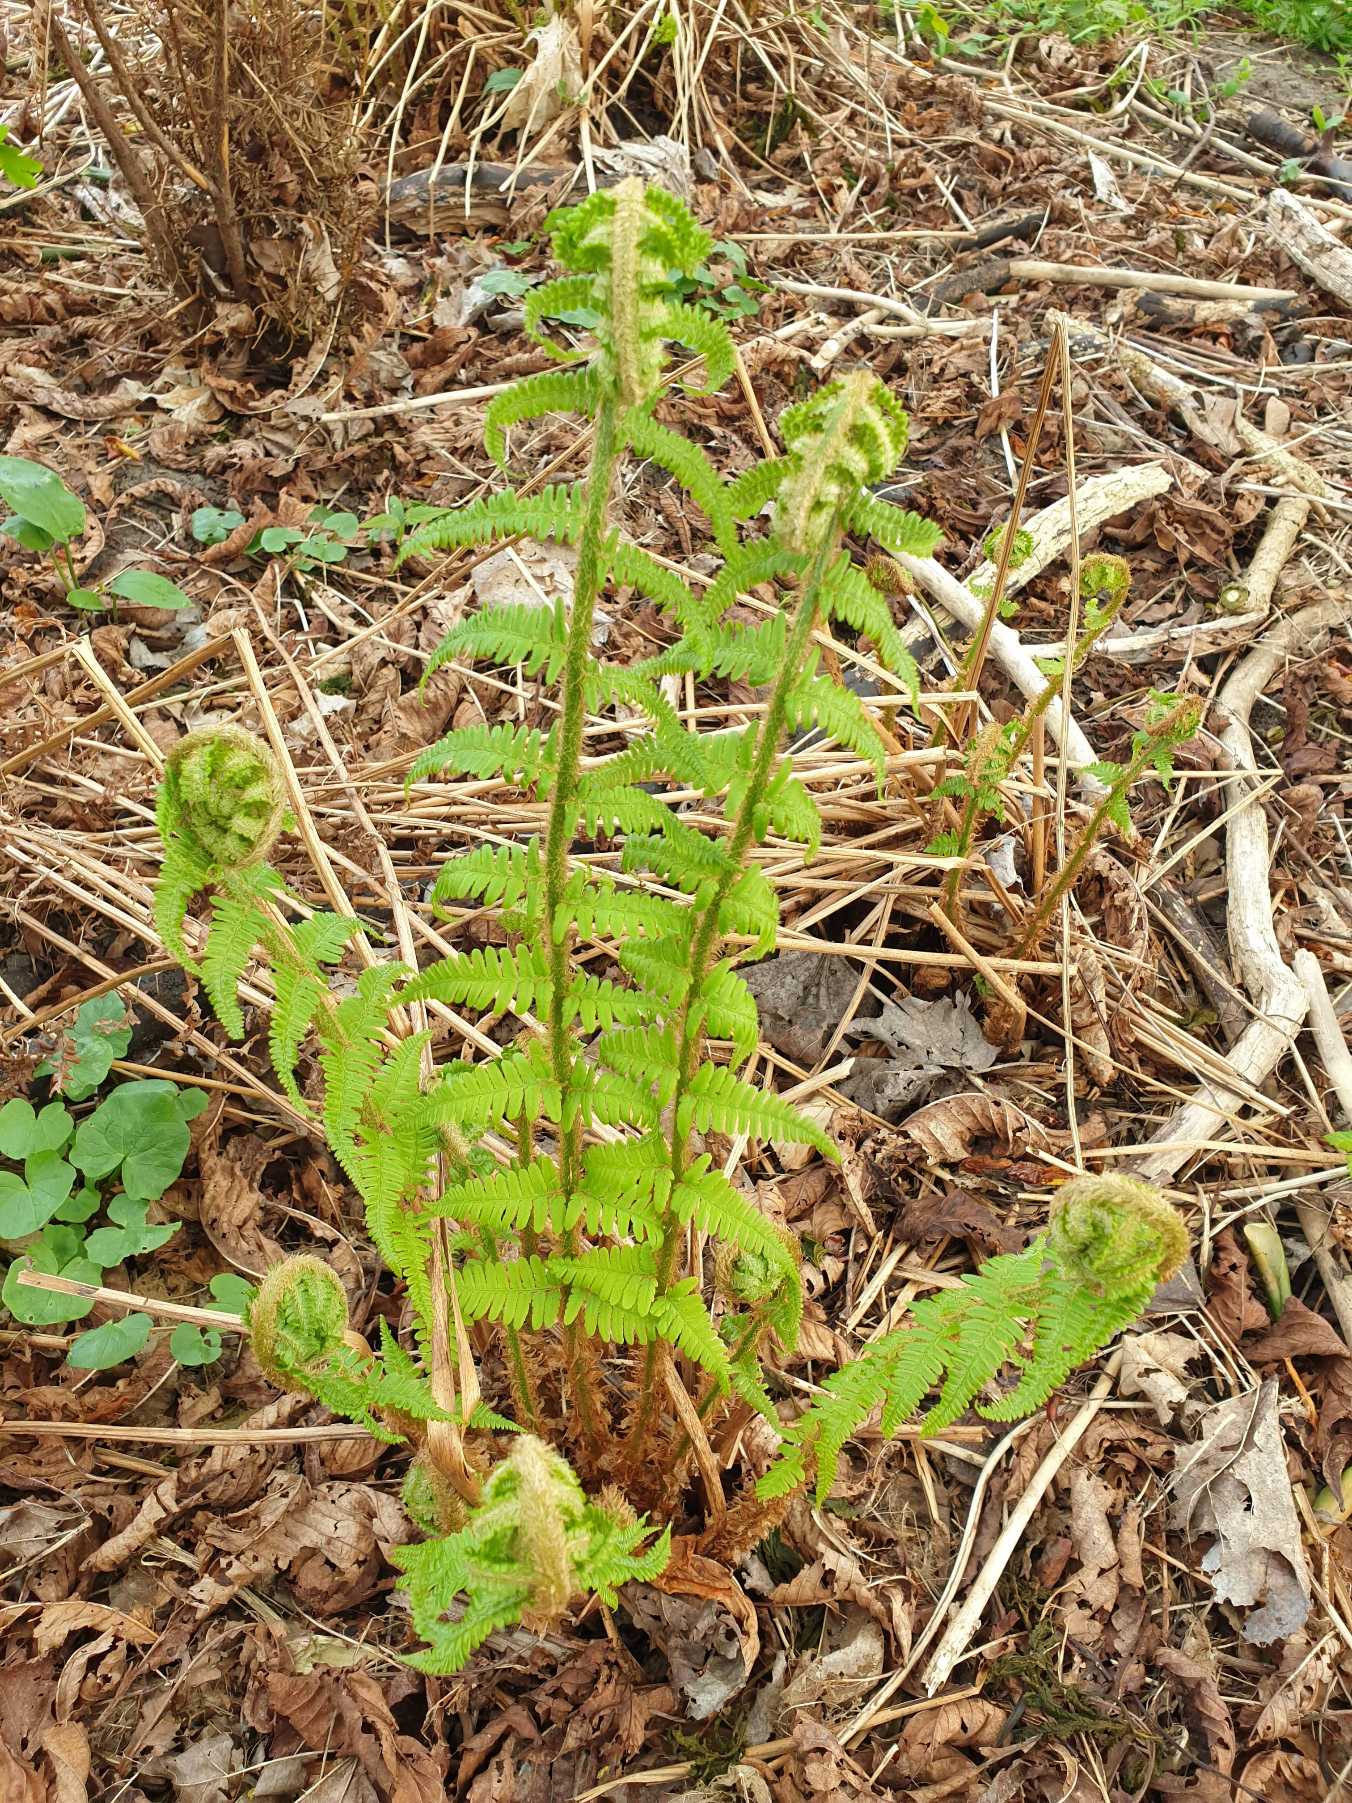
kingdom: Plantae
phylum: Tracheophyta
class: Polypodiopsida
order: Polypodiales
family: Dryopteridaceae
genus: Dryopteris
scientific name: Dryopteris filix-mas
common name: Almindelig mangeløv
